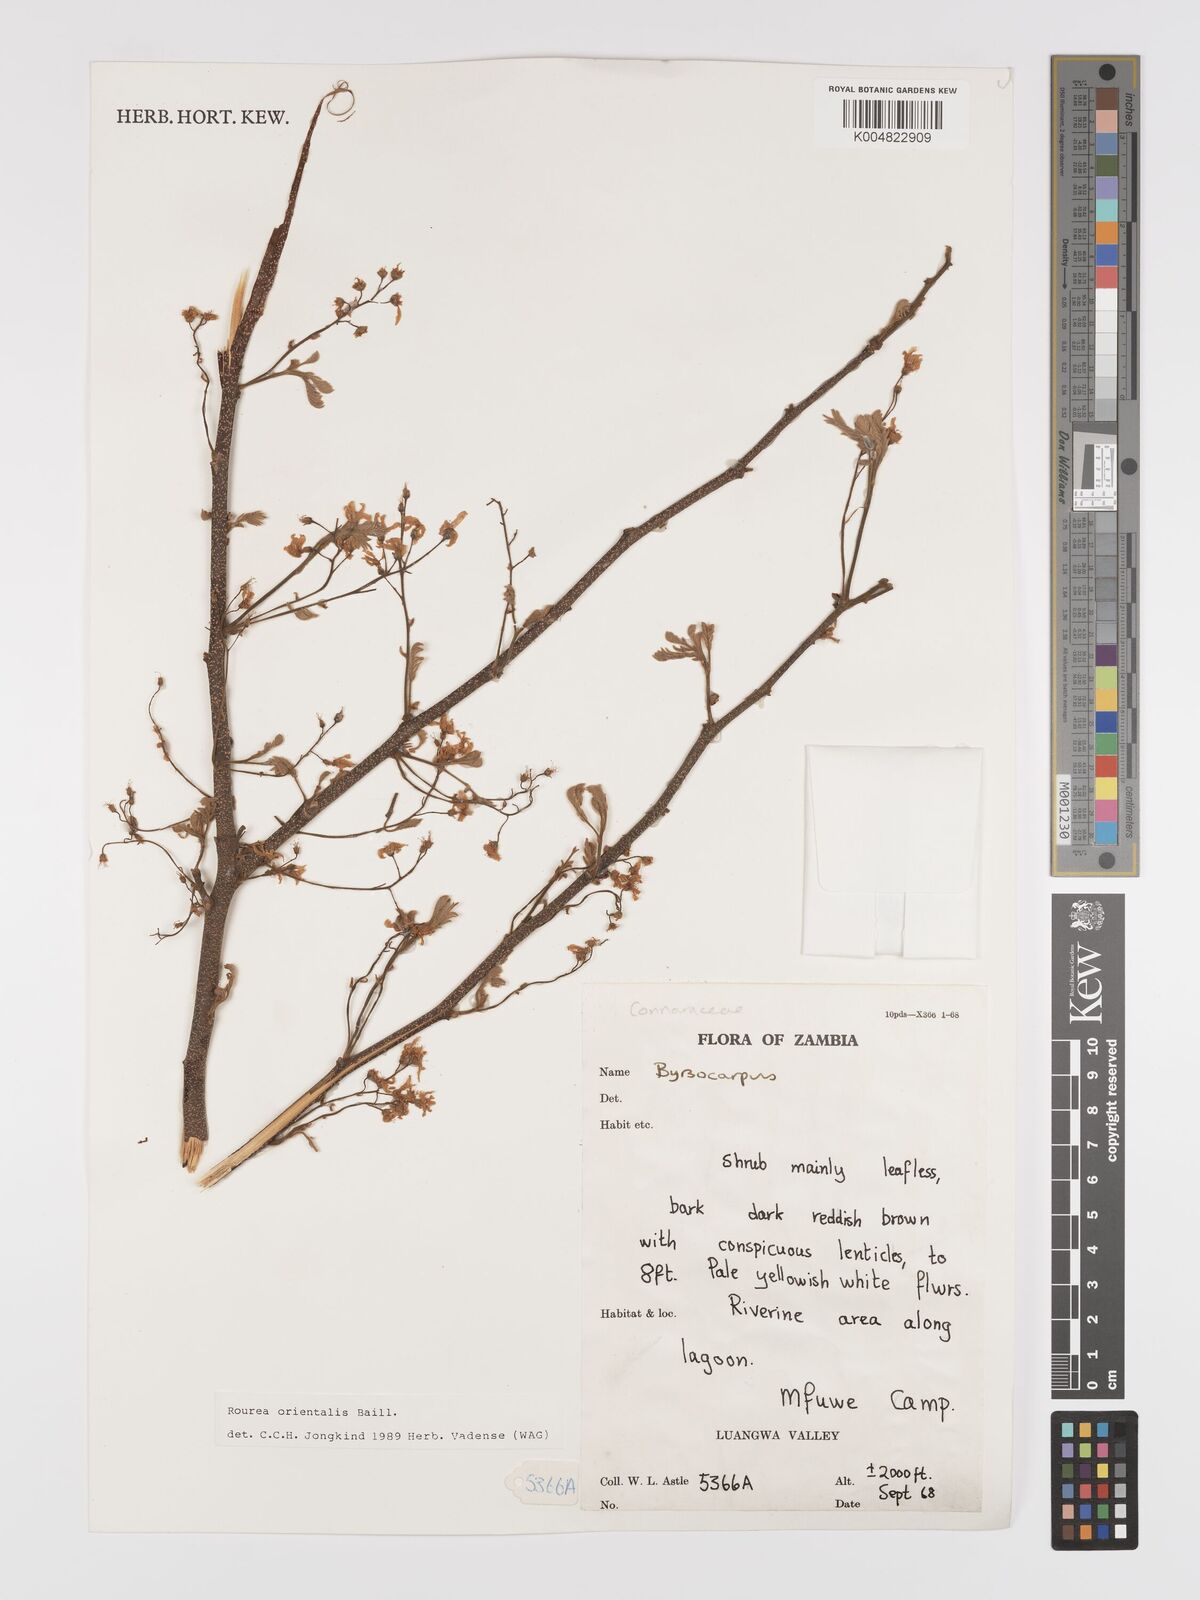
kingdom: Plantae
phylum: Tracheophyta
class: Magnoliopsida
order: Oxalidales
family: Connaraceae
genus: Rourea
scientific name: Rourea orientalis
